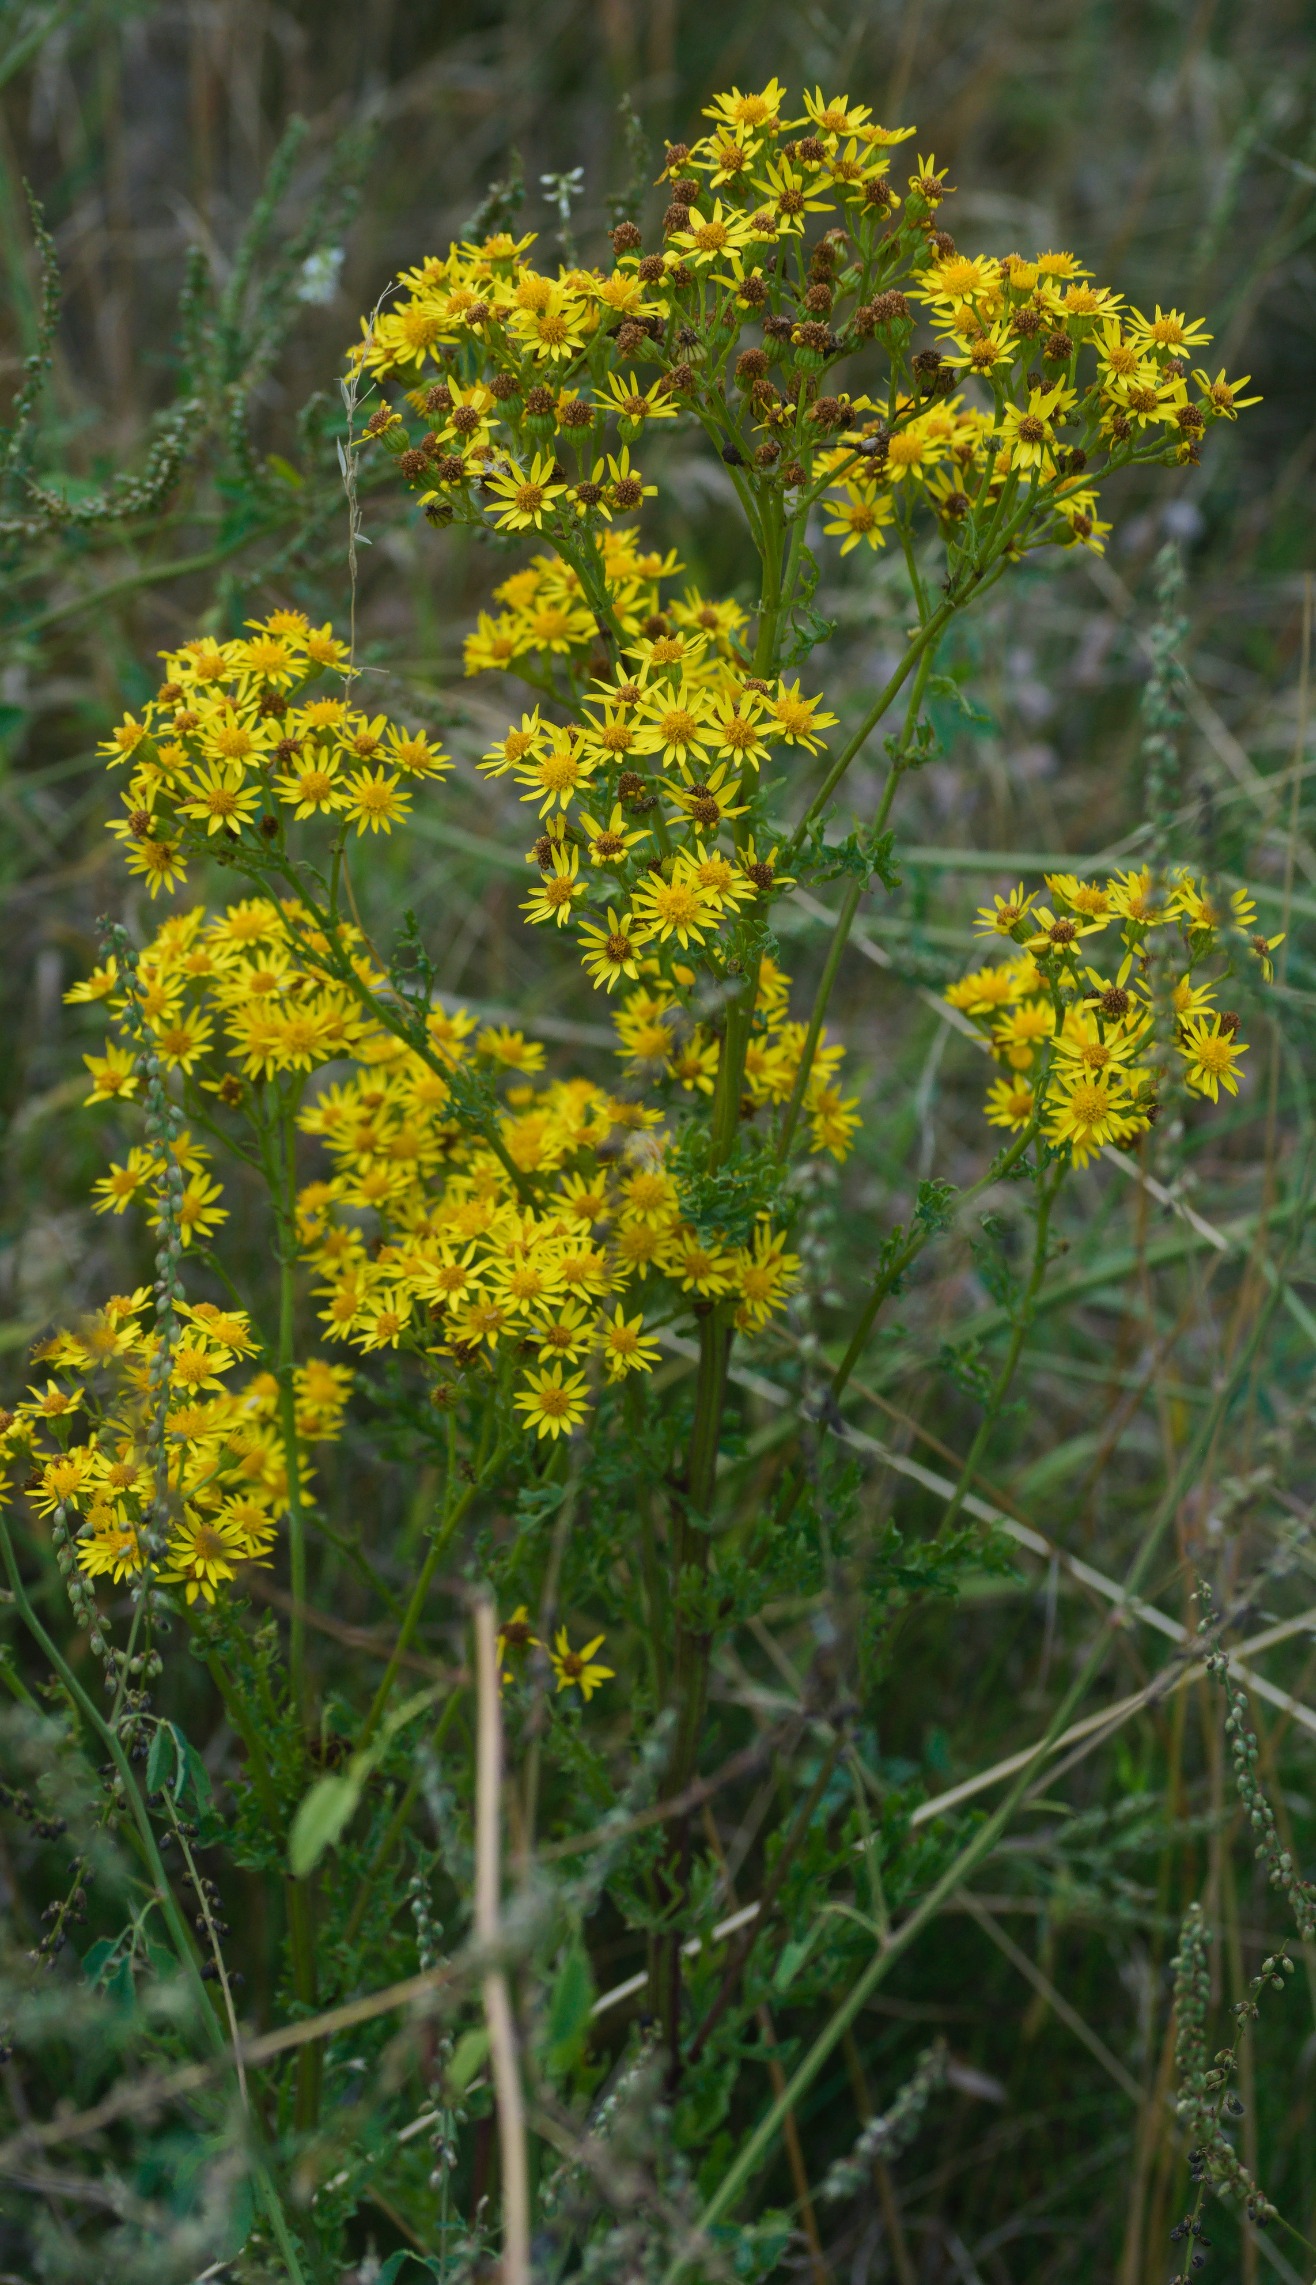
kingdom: Plantae
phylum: Tracheophyta
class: Magnoliopsida
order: Asterales
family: Asteraceae
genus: Jacobaea
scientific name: Jacobaea vulgaris
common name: Eng-brandbæger
